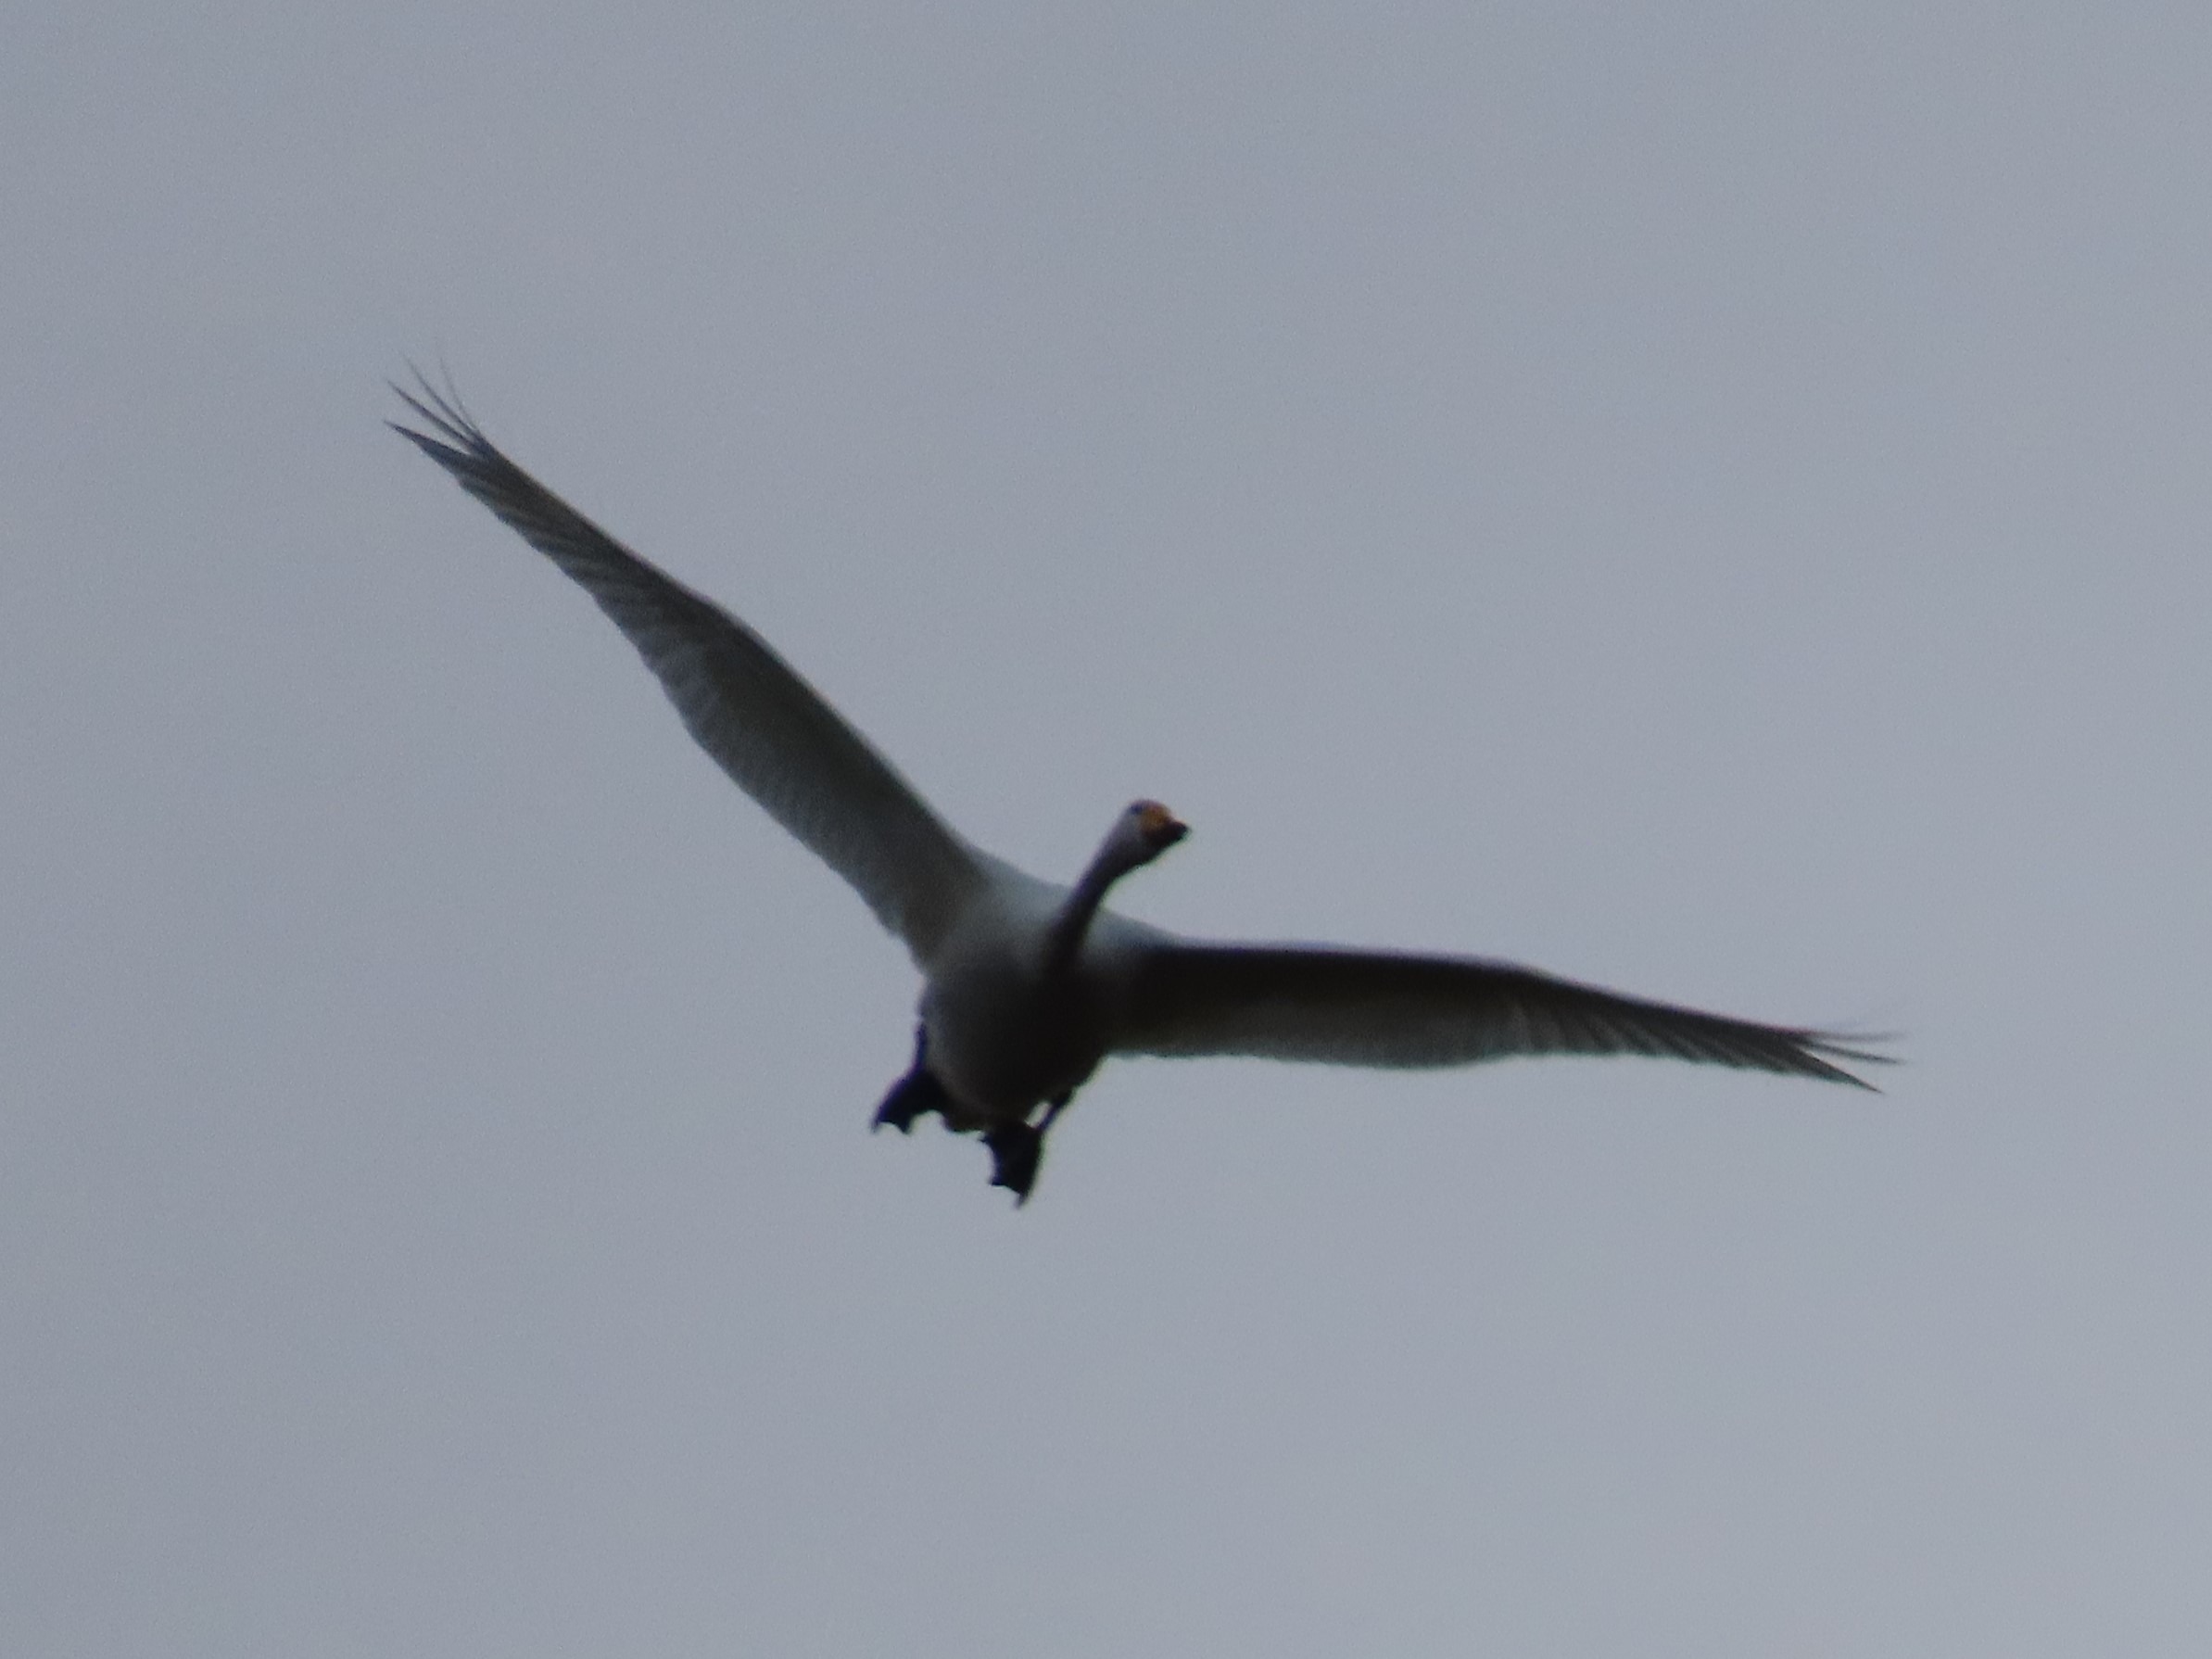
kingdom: Animalia
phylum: Chordata
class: Aves
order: Anseriformes
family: Anatidae
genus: Cygnus
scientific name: Cygnus cygnus
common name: Sangsvane
